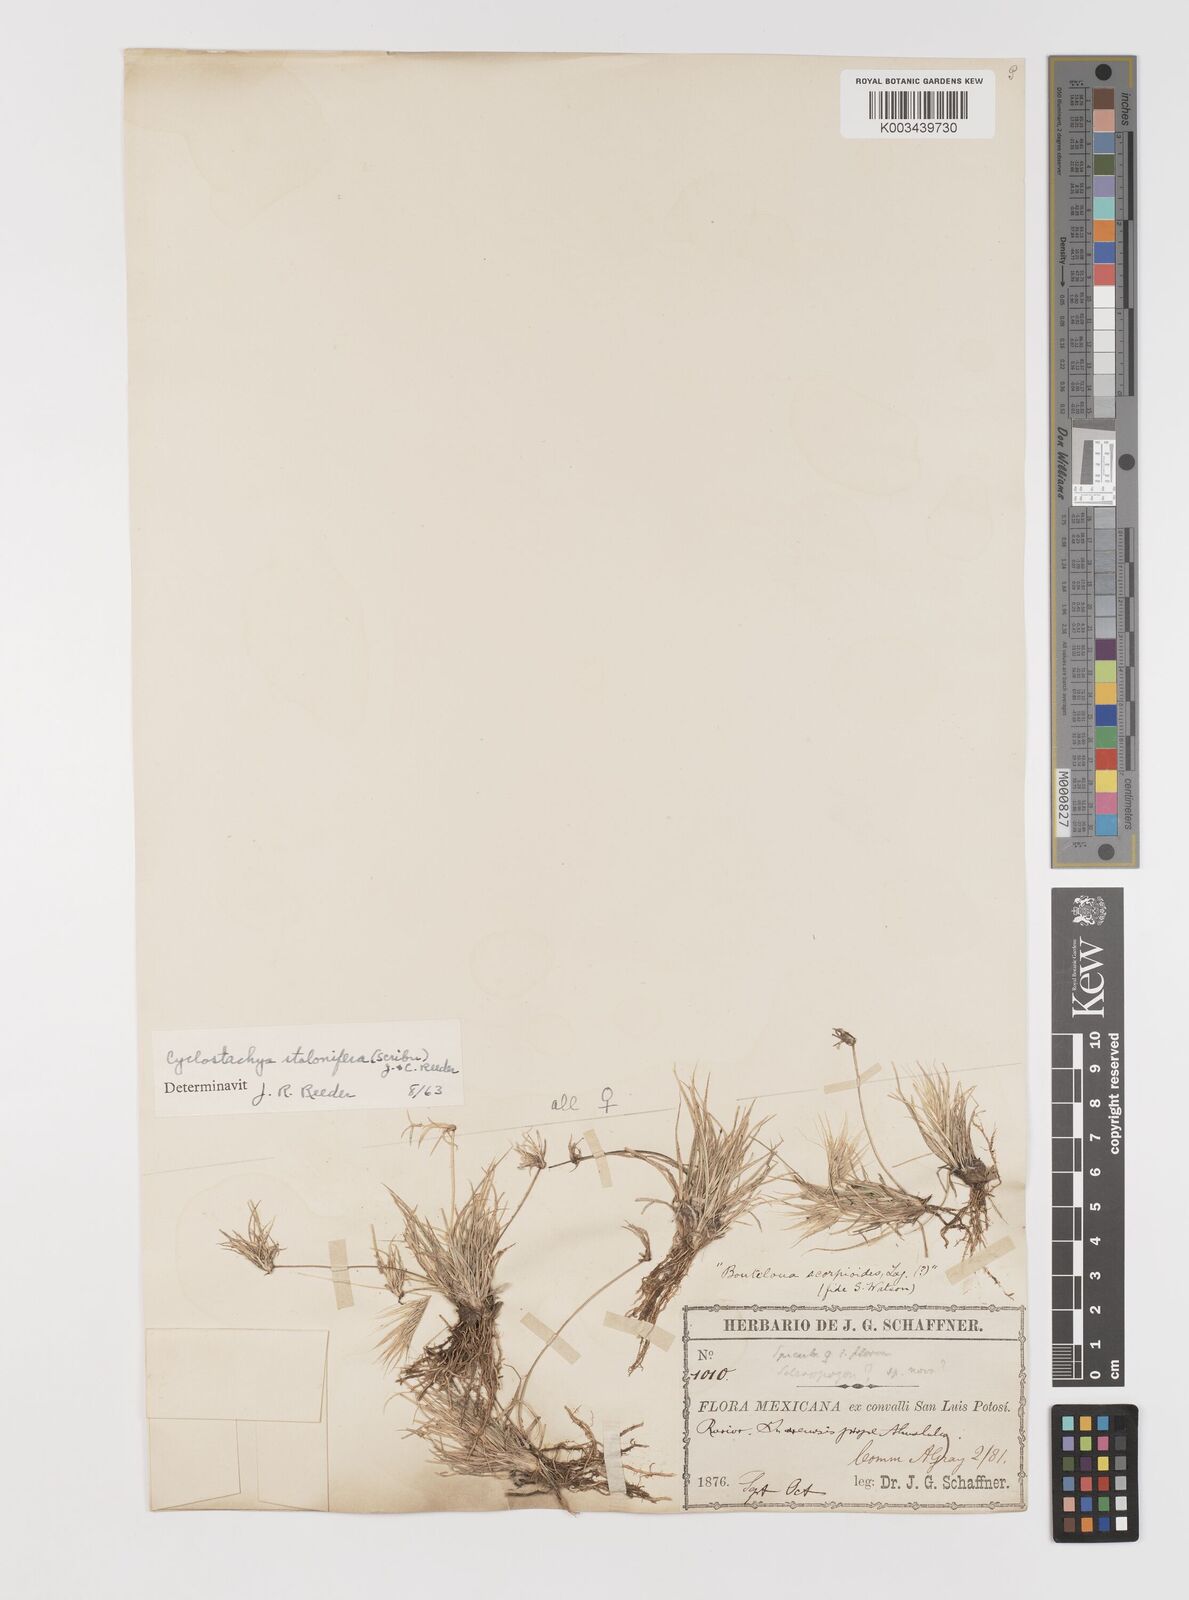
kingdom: Plantae
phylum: Tracheophyta
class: Liliopsida
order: Poales
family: Poaceae
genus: Bouteloua
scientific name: Bouteloua stolonifera
